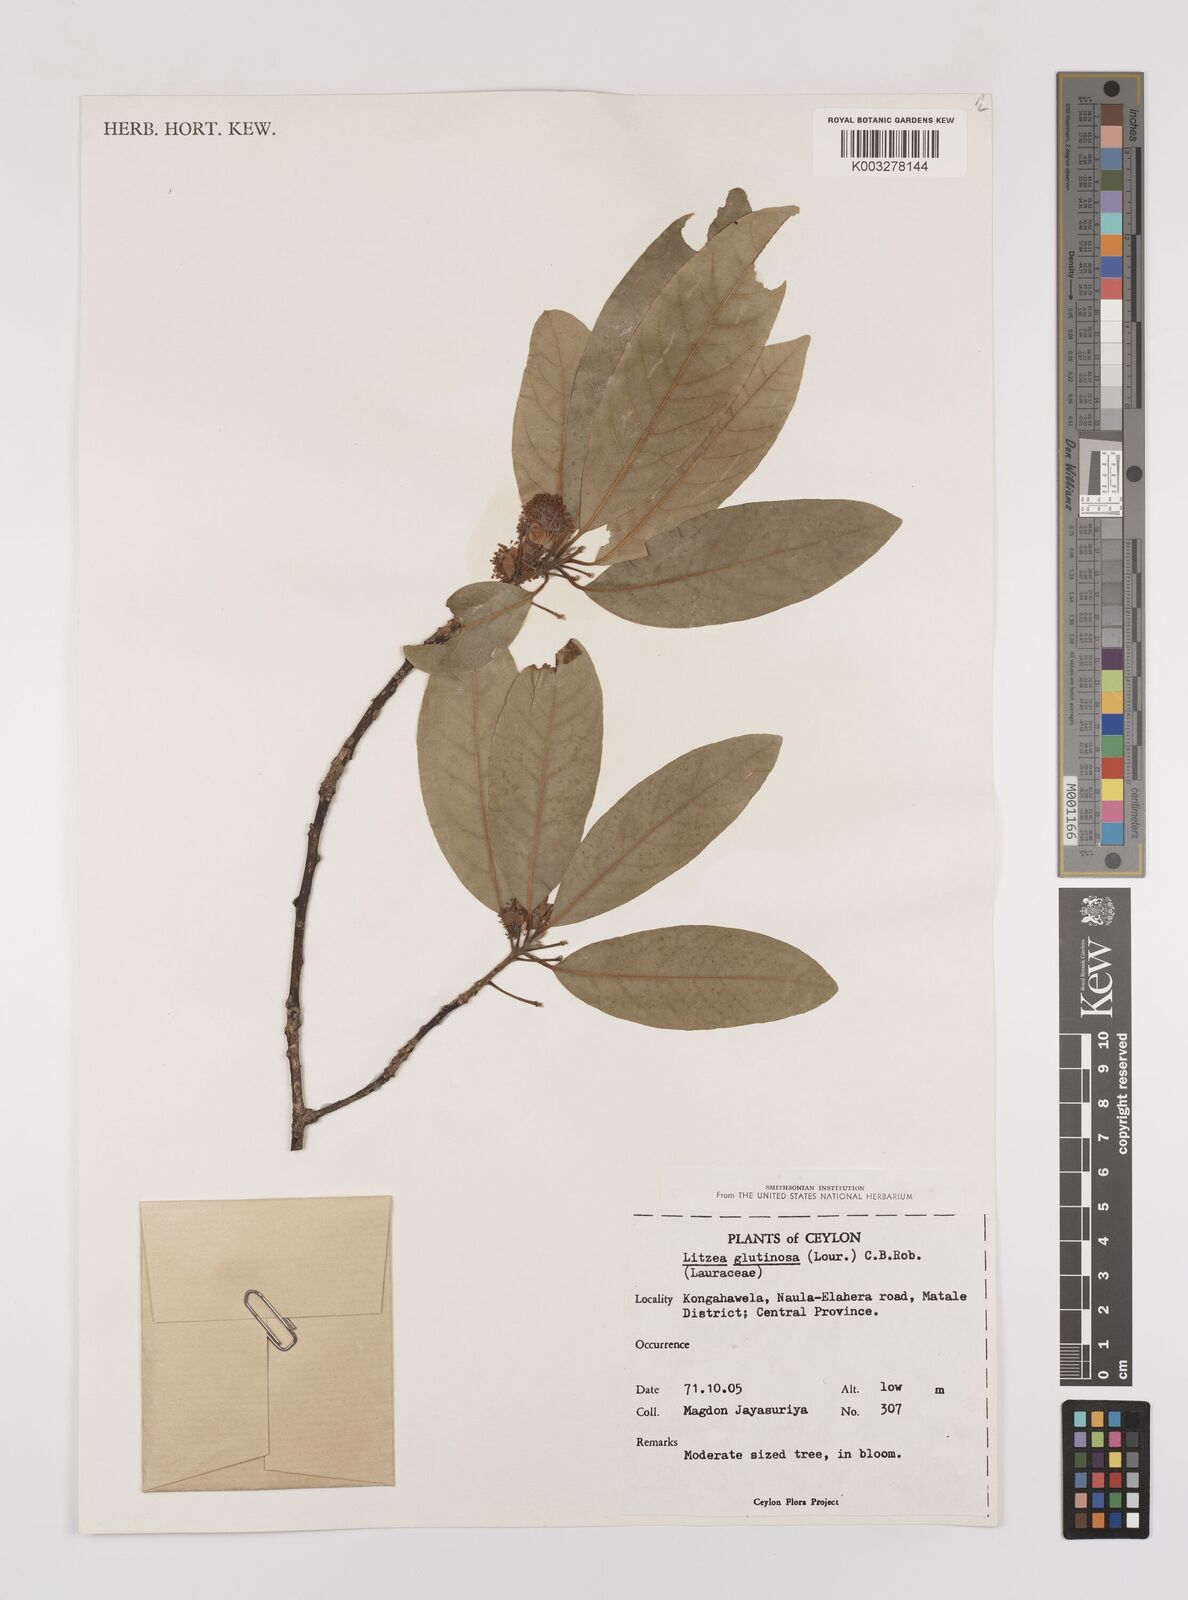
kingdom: Plantae
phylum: Tracheophyta
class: Magnoliopsida
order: Laurales
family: Lauraceae
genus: Litsea
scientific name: Litsea
